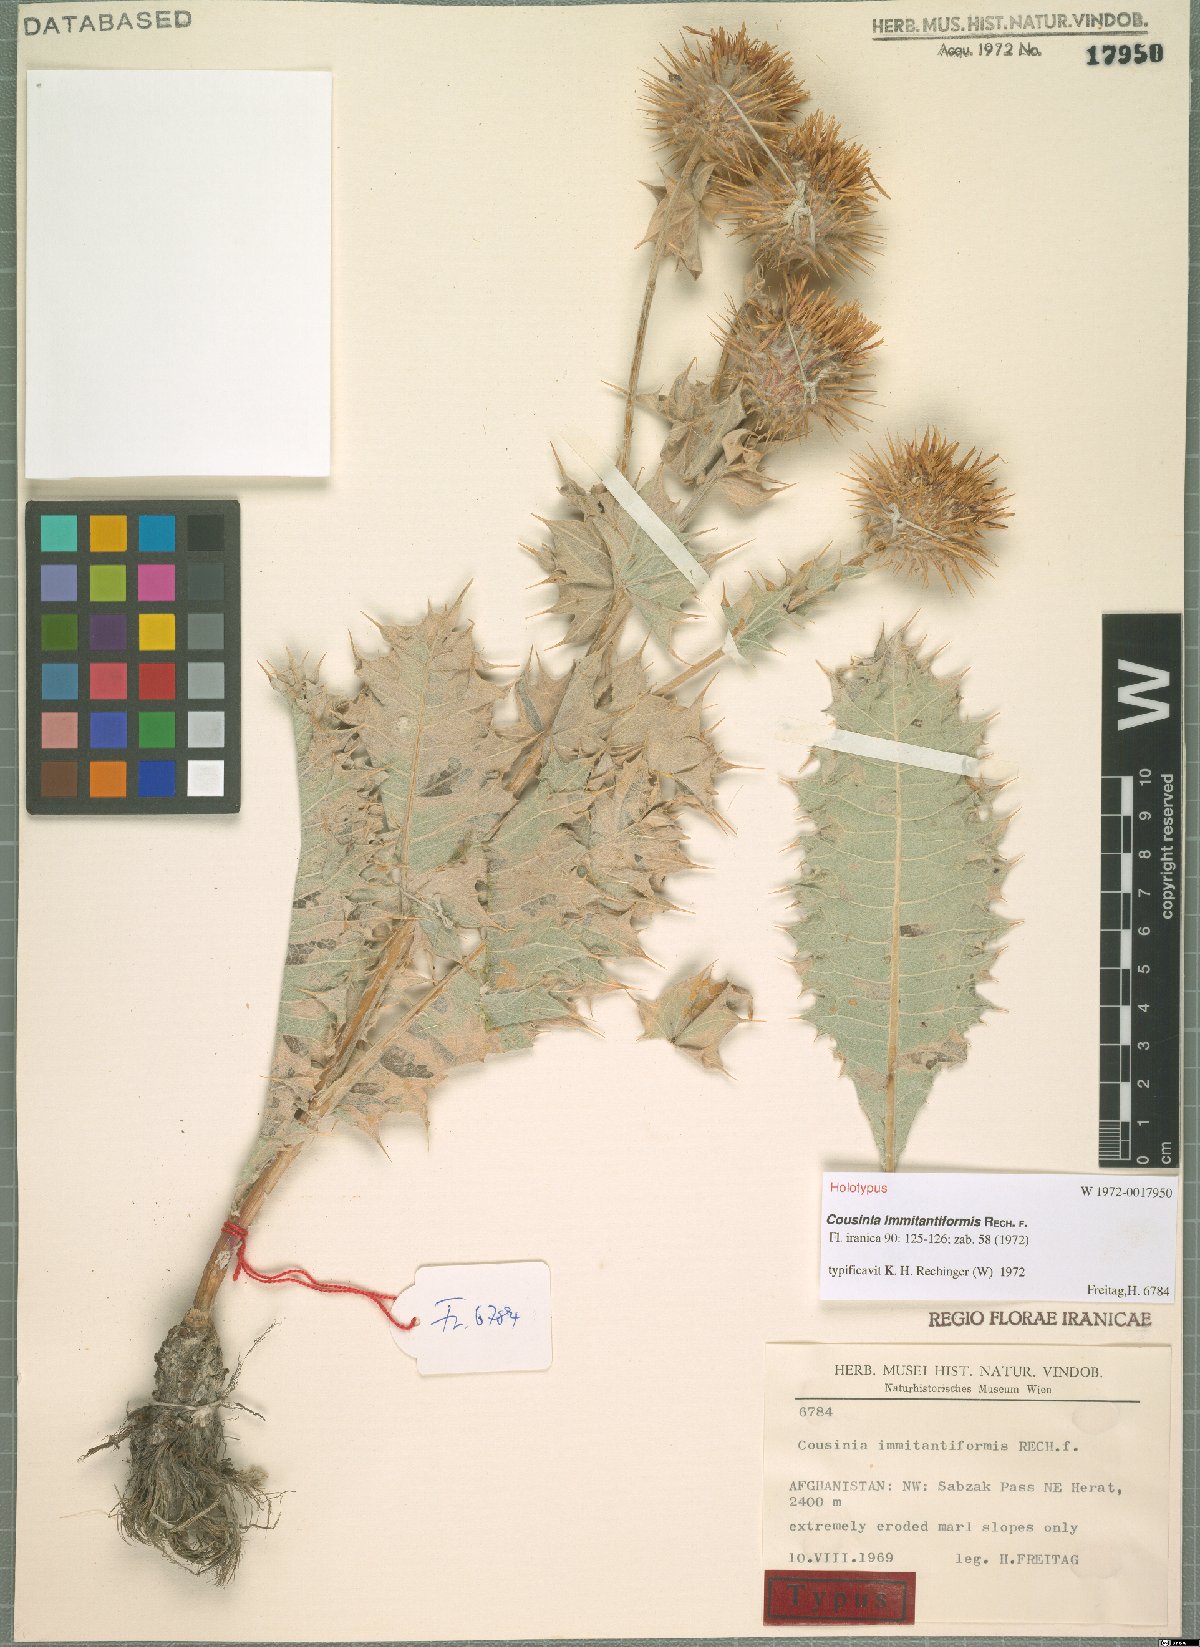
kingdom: Plantae
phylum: Tracheophyta
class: Magnoliopsida
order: Asterales
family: Asteraceae
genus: Cousinia
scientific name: Cousinia immitantiformis
